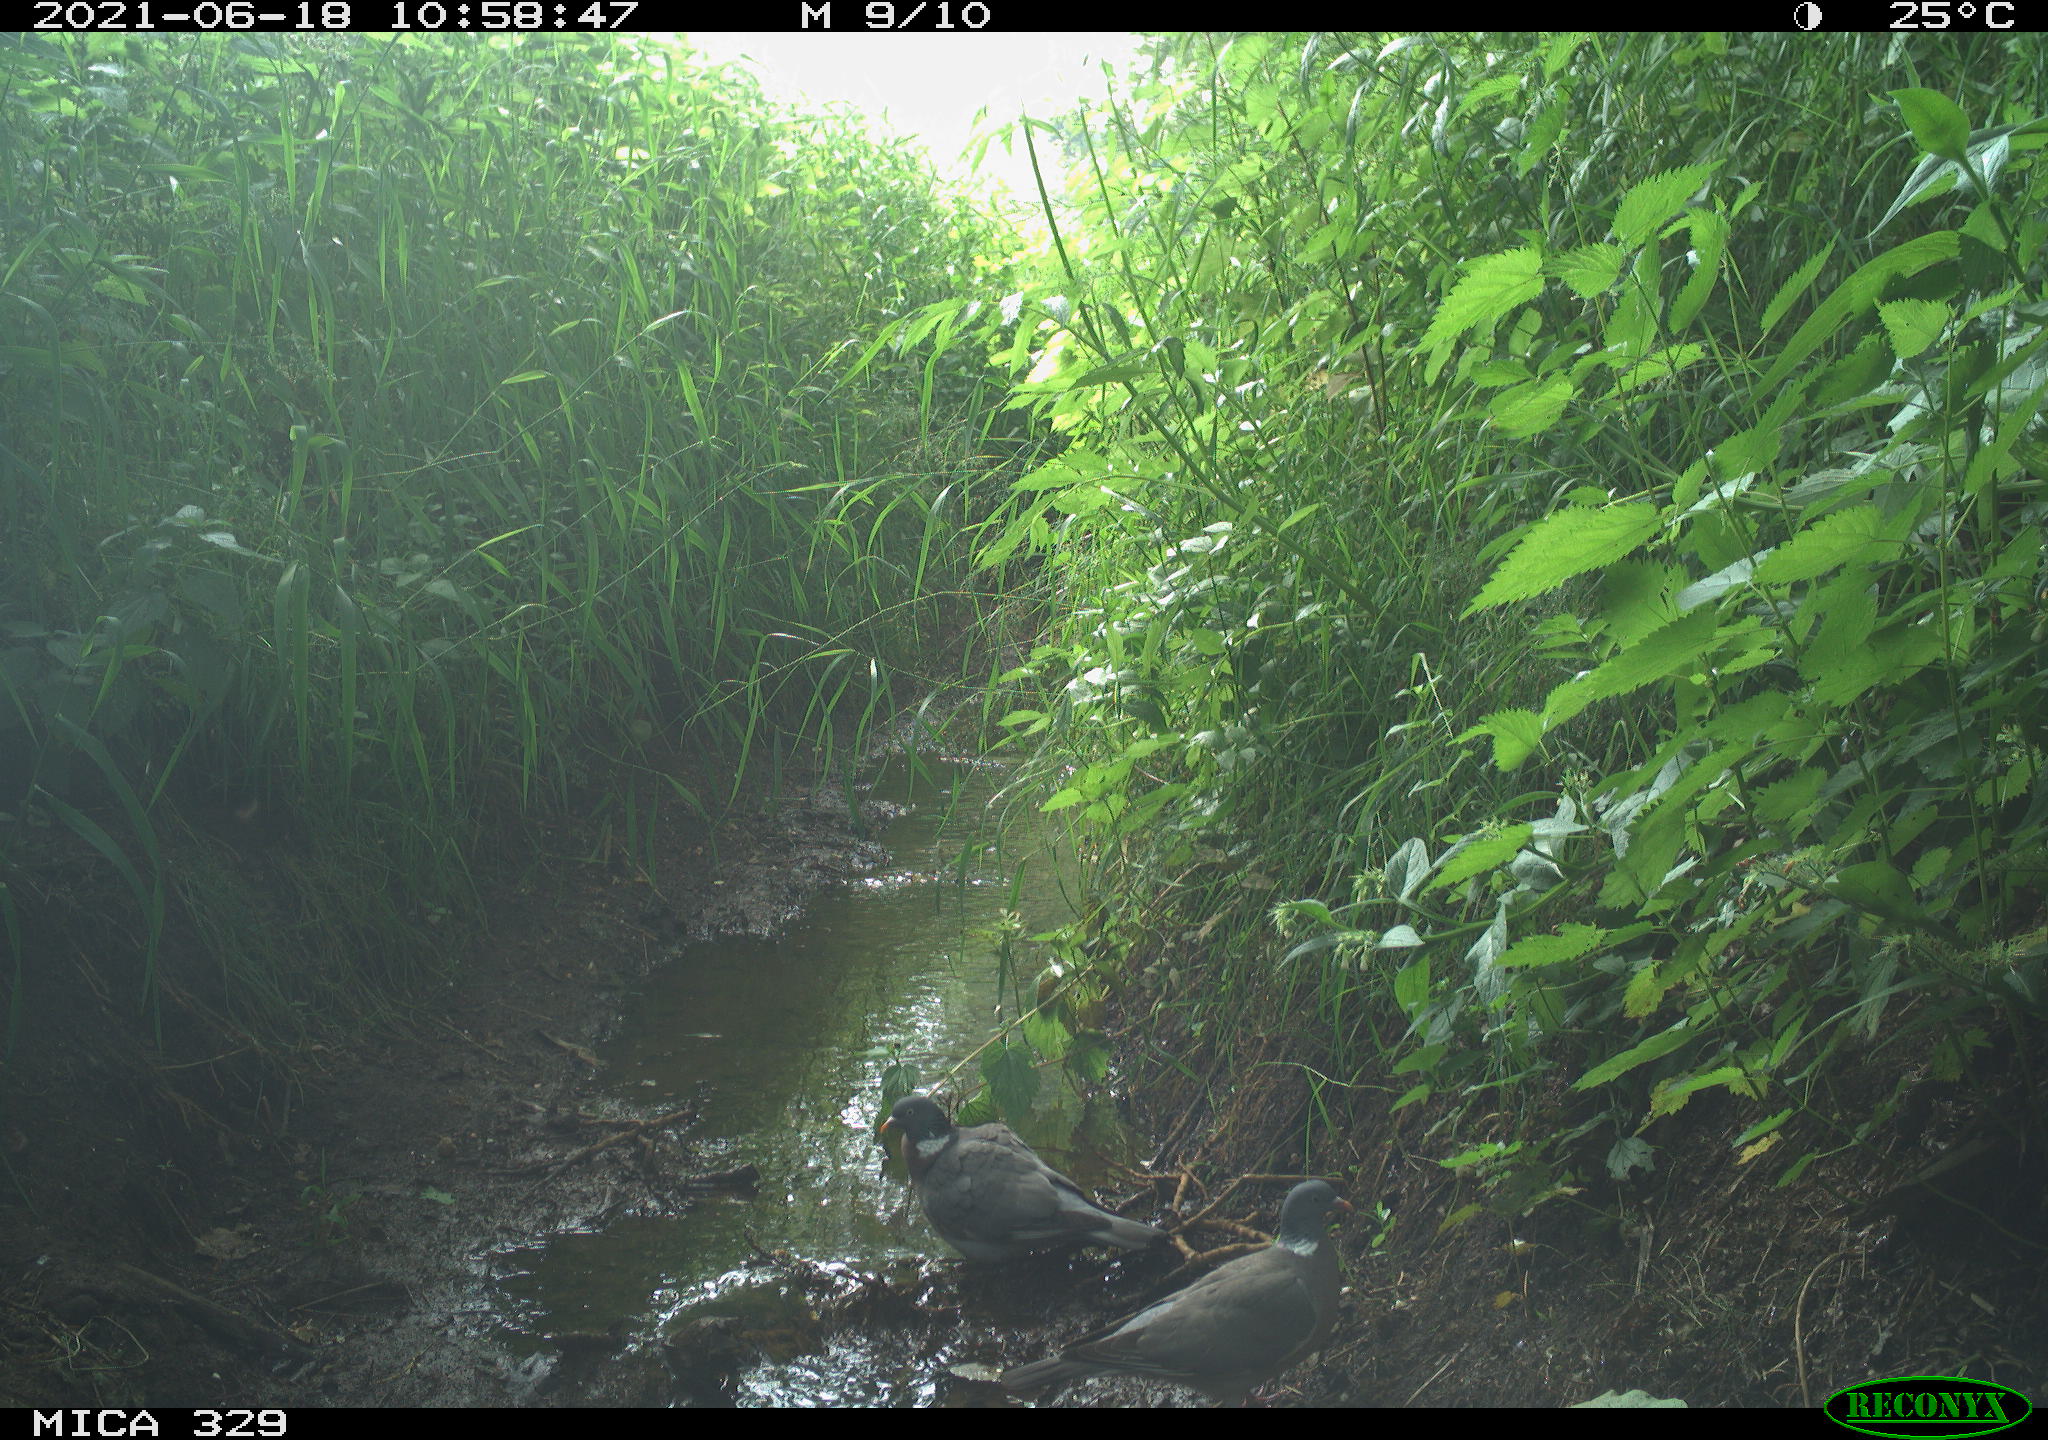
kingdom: Animalia
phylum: Chordata
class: Aves
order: Columbiformes
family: Columbidae
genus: Columba
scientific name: Columba palumbus
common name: Common wood pigeon
